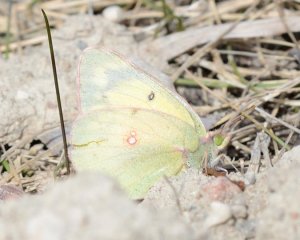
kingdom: Animalia
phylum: Arthropoda
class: Insecta
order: Lepidoptera
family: Pieridae
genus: Colias
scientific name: Colias eurytheme
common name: Orange Sulphur
